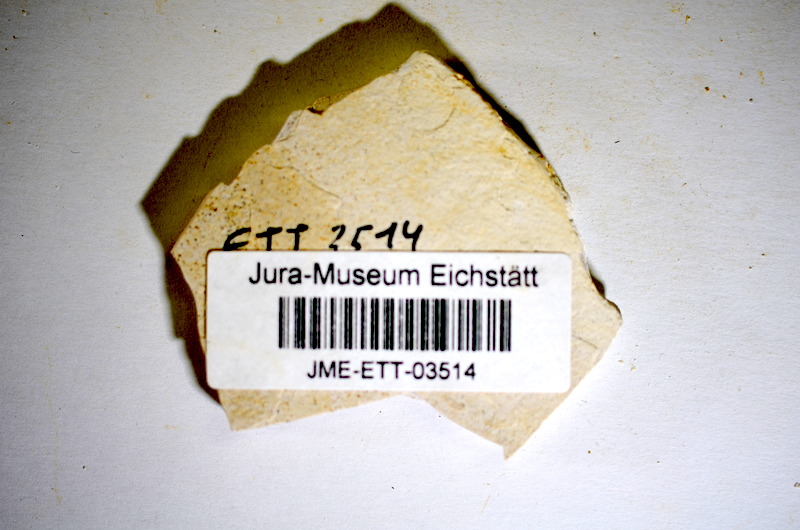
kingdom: Animalia
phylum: Chordata
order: Salmoniformes
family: Orthogonikleithridae
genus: Orthogonikleithrus
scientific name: Orthogonikleithrus hoelli
